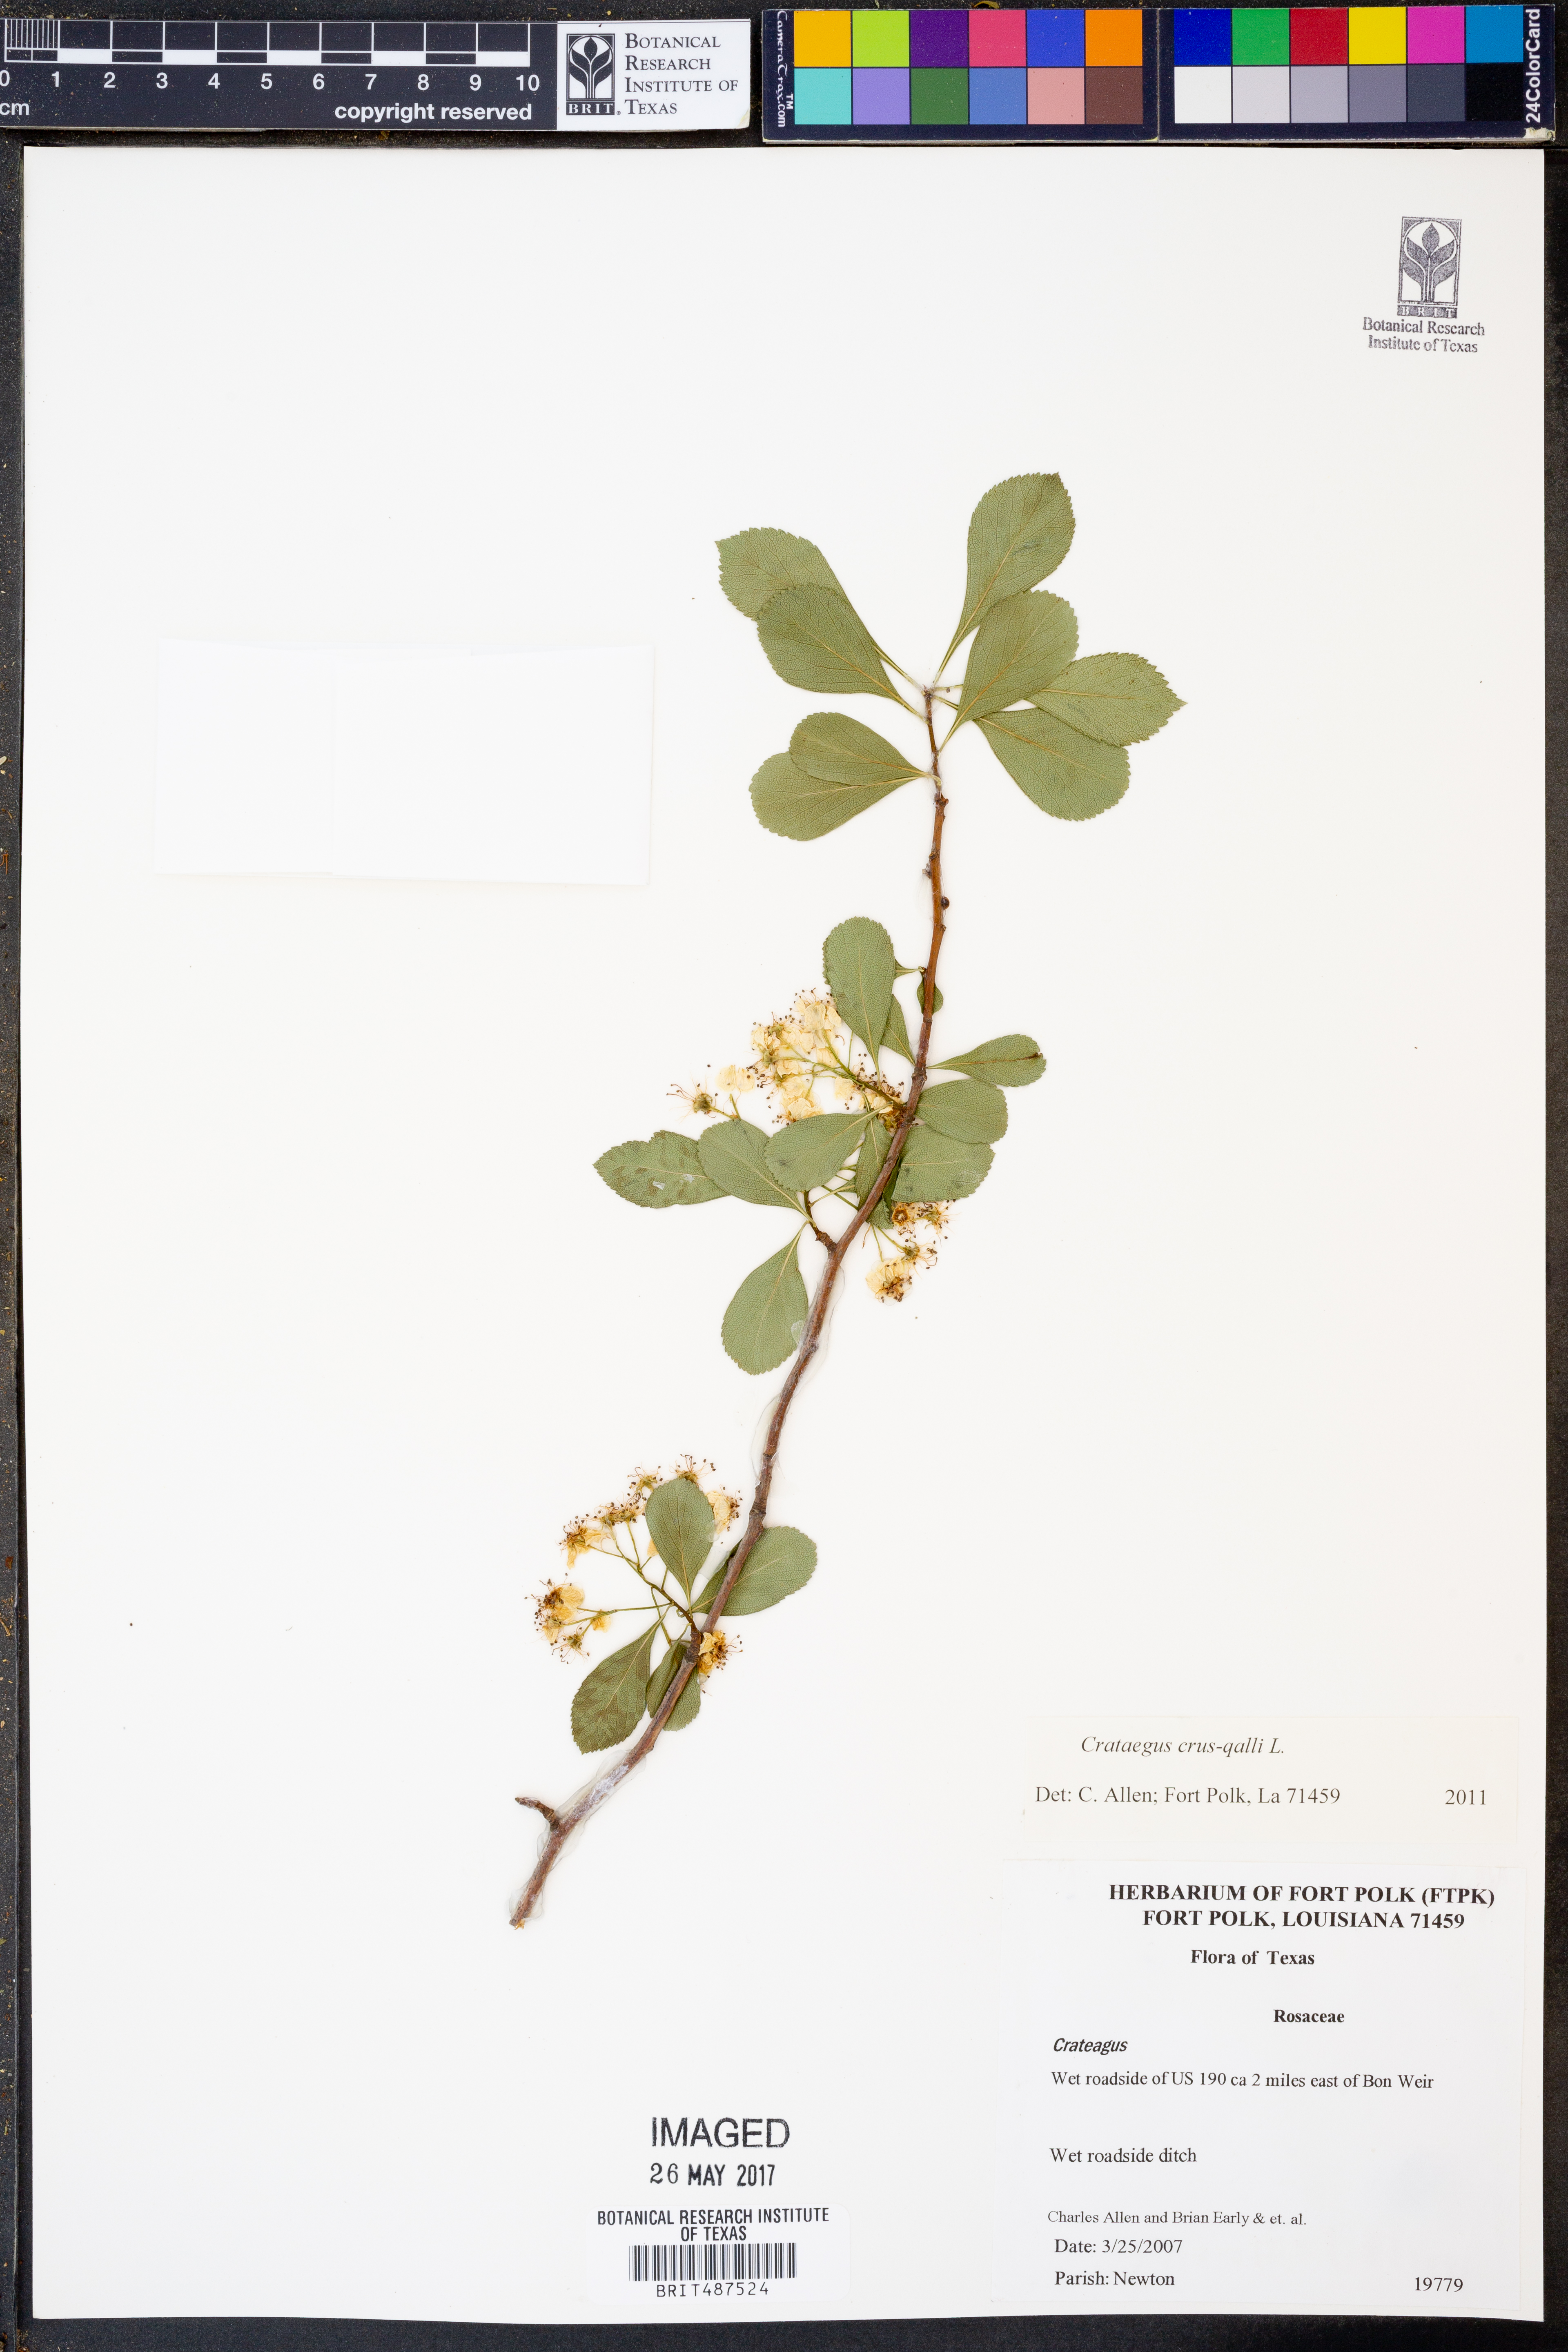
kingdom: Plantae
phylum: Tracheophyta
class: Magnoliopsida
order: Rosales
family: Rosaceae
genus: Crataegus
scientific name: Crataegus crus-galli
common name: Cockspurthorn
